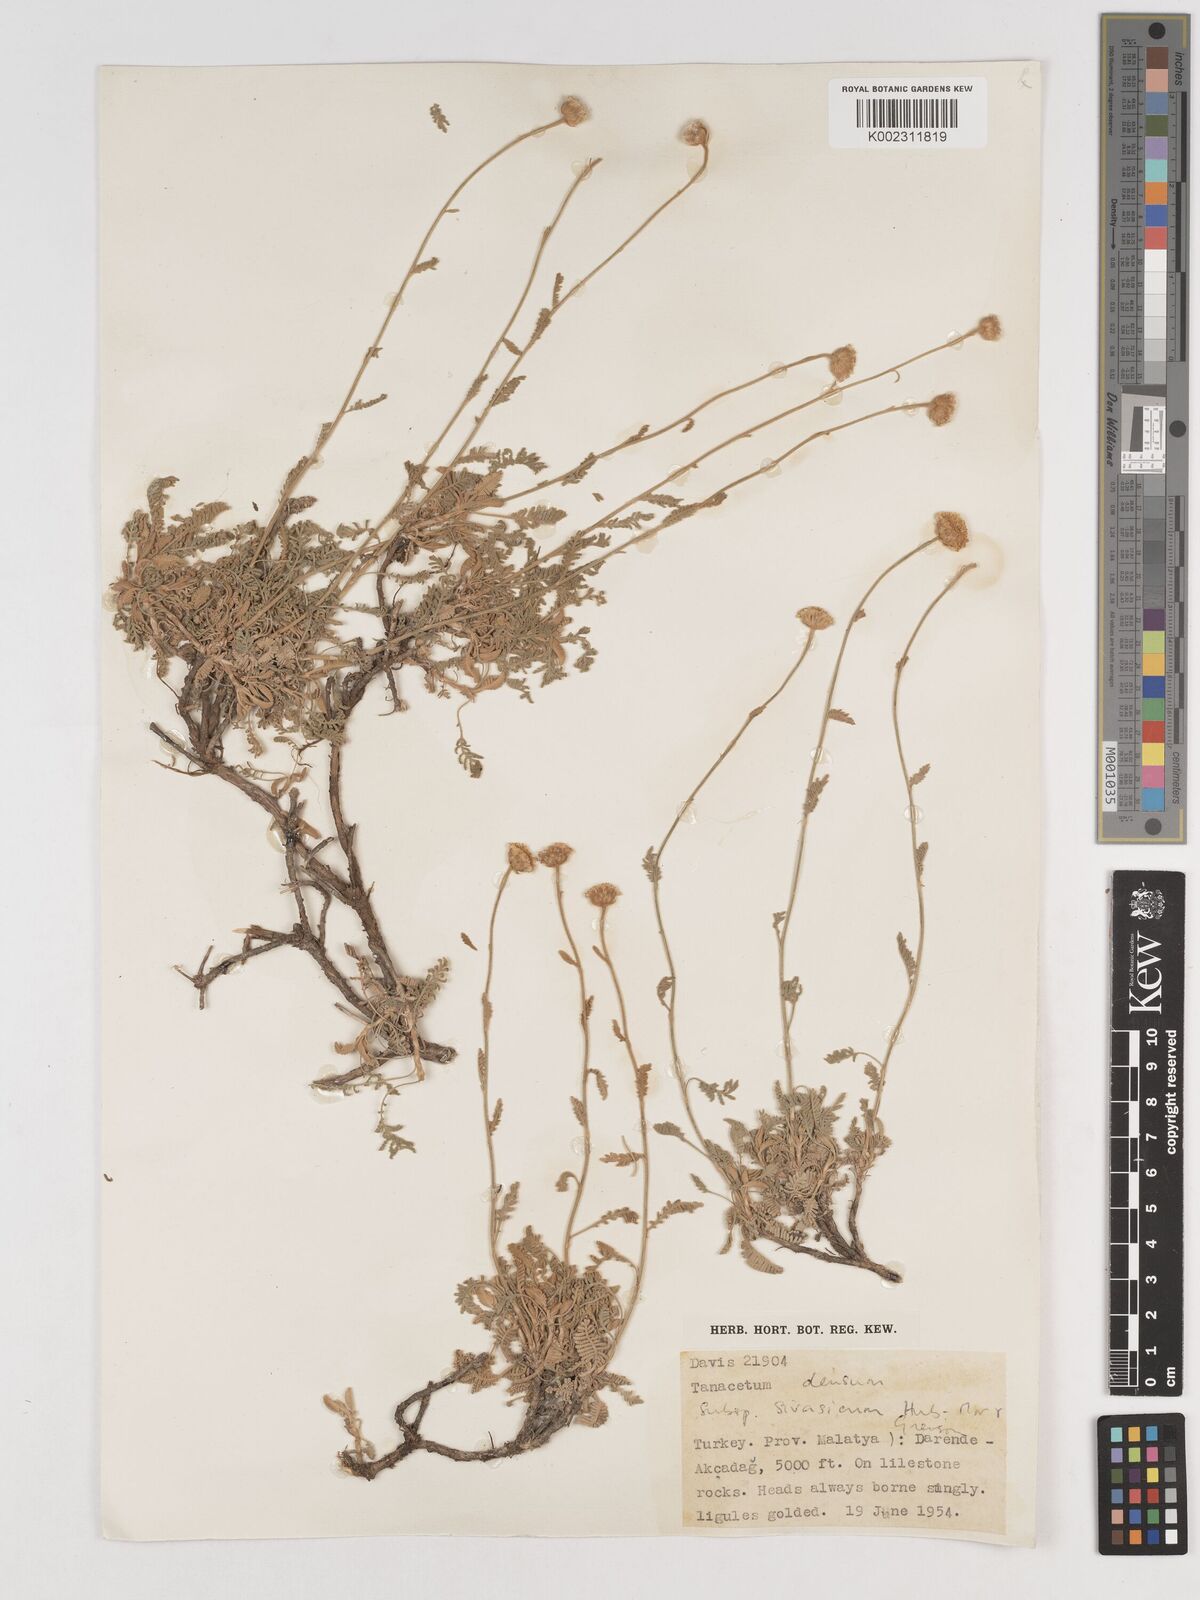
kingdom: Plantae
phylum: Tracheophyta
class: Magnoliopsida
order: Asterales
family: Asteraceae
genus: Tanacetum
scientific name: Tanacetum densum
